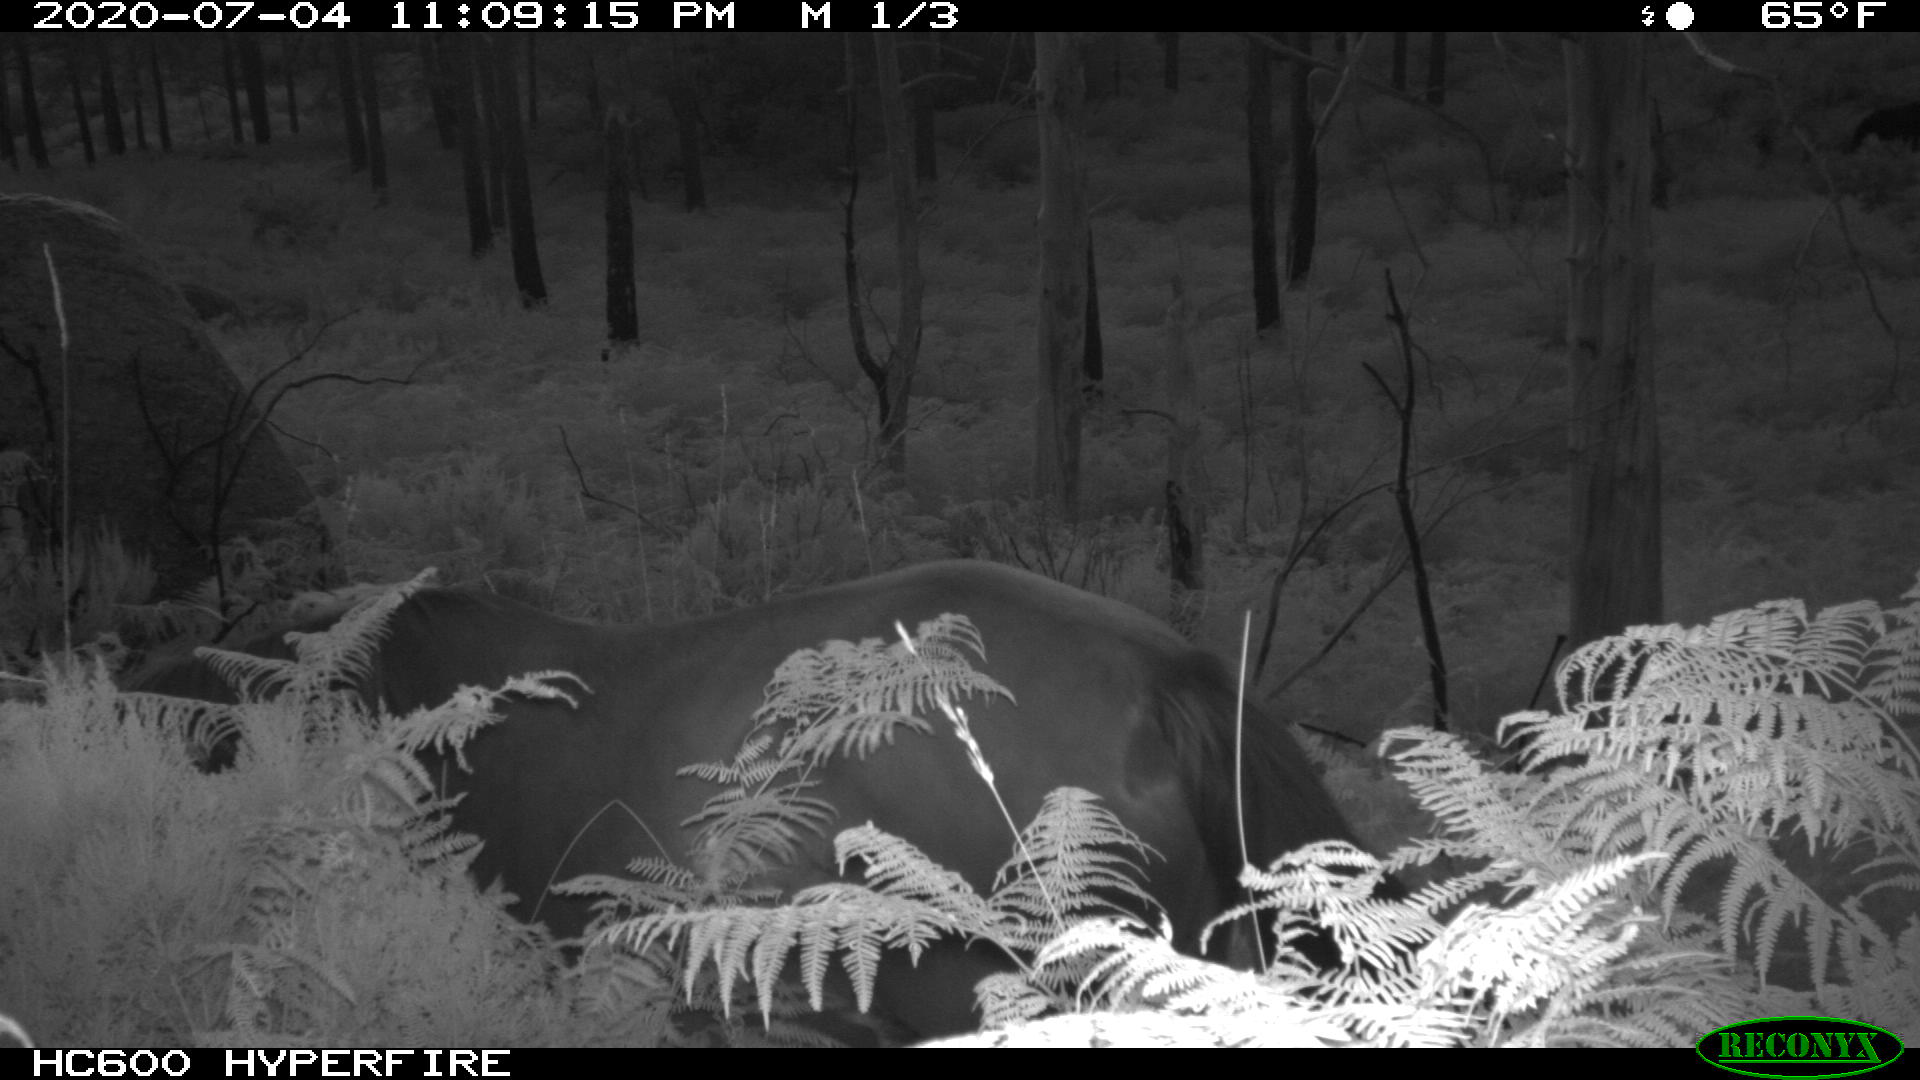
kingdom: Animalia
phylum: Chordata
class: Mammalia
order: Perissodactyla
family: Equidae
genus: Equus
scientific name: Equus caballus
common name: Horse
